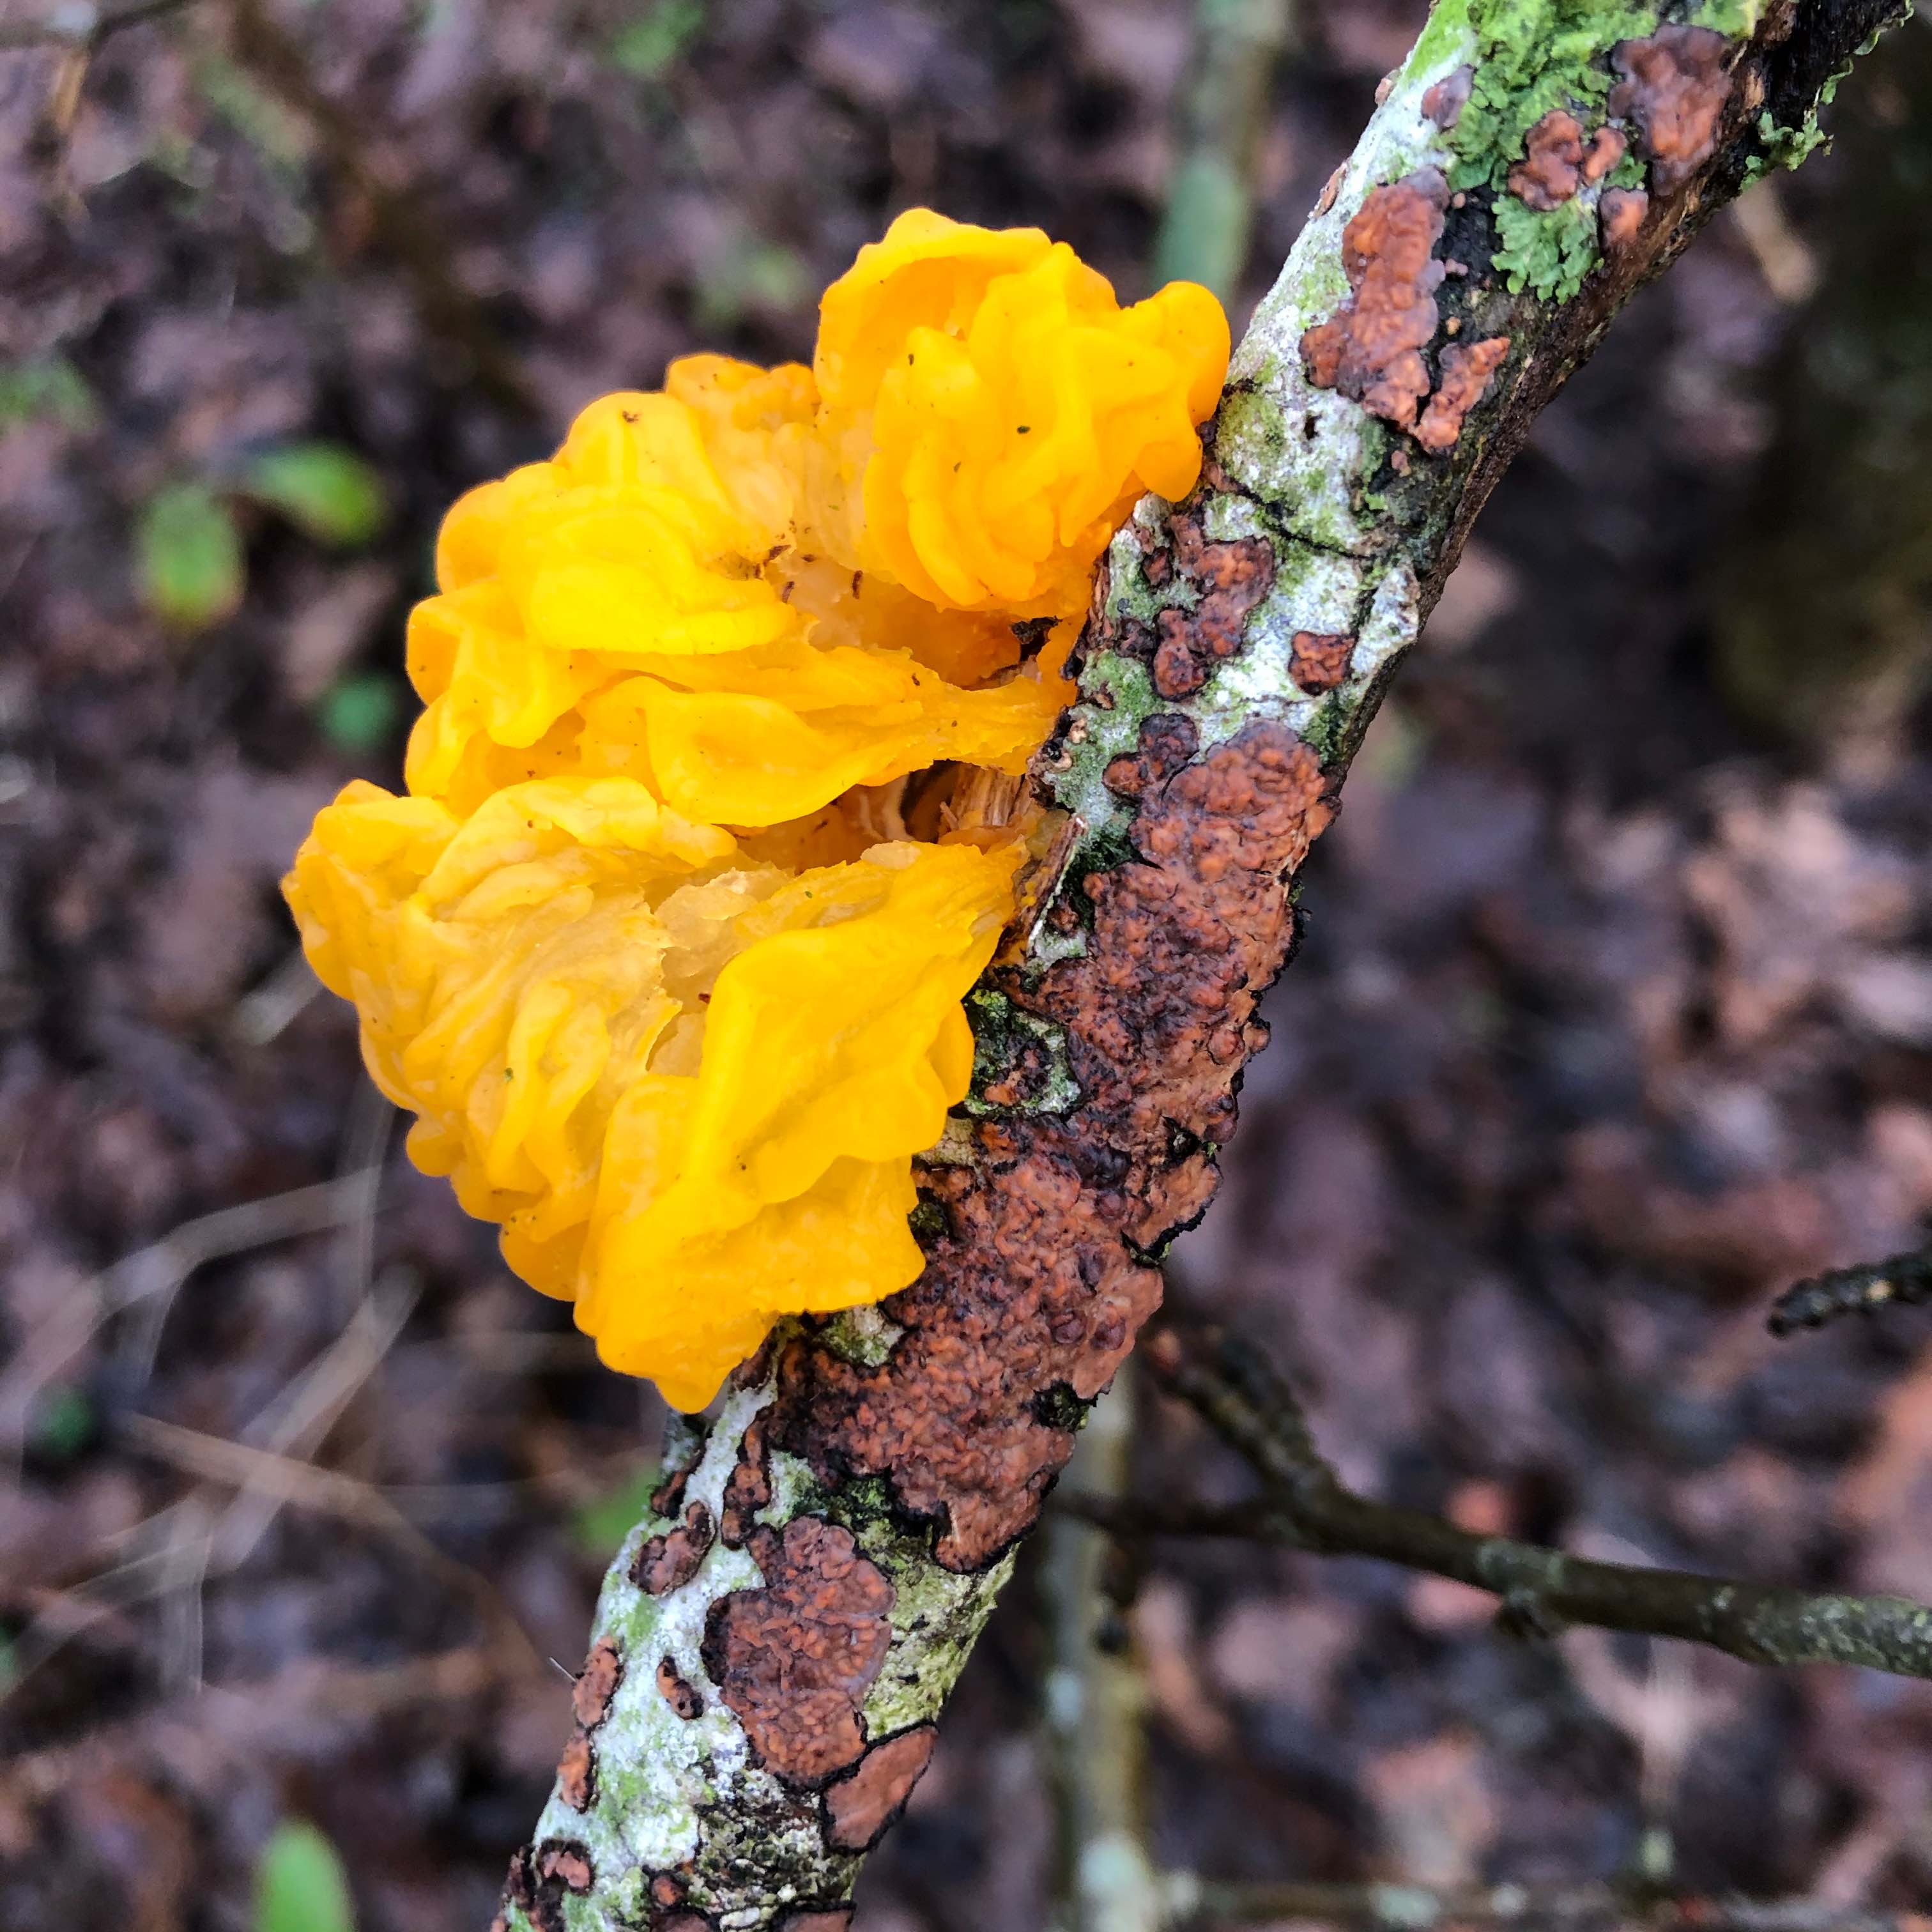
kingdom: Fungi
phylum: Basidiomycota
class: Tremellomycetes
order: Tremellales
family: Tremellaceae
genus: Tremella
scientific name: Tremella mesenterica
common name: gul bævresvamp
